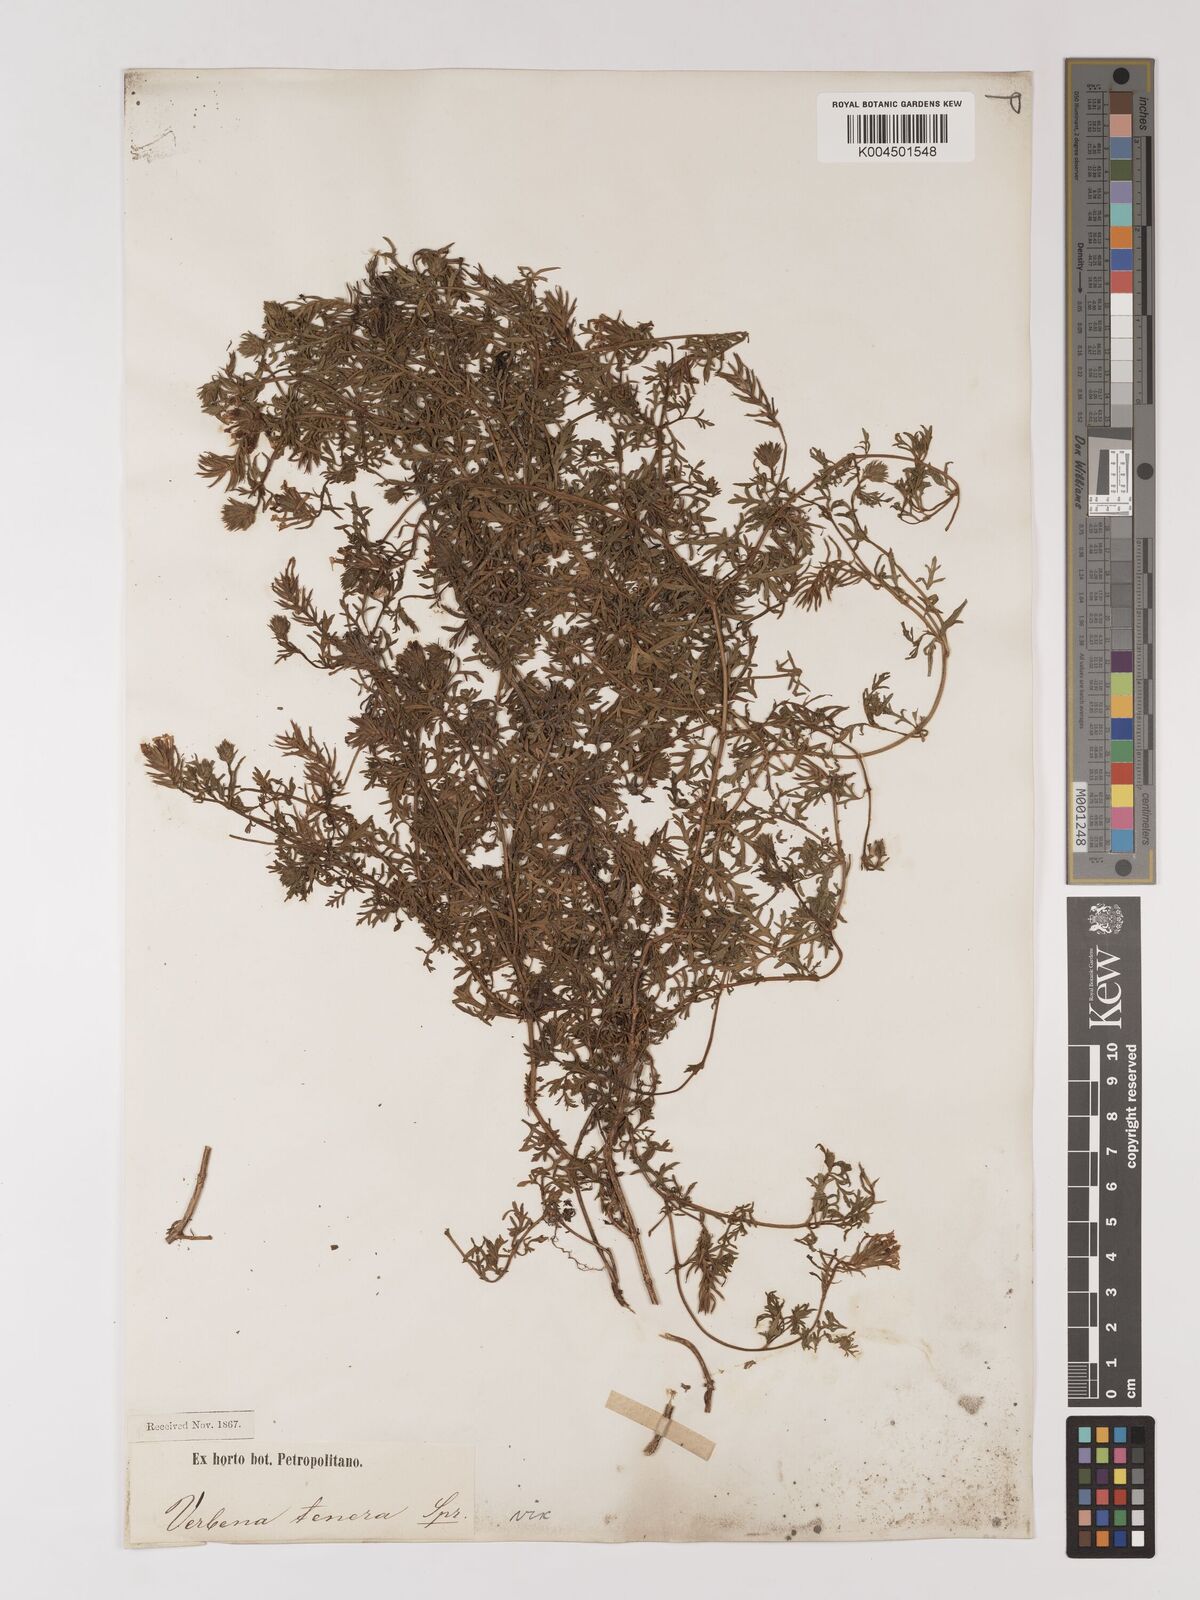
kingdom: Plantae
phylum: Tracheophyta
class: Magnoliopsida
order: Lamiales
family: Verbenaceae
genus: Verbena
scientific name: Verbena tenera
